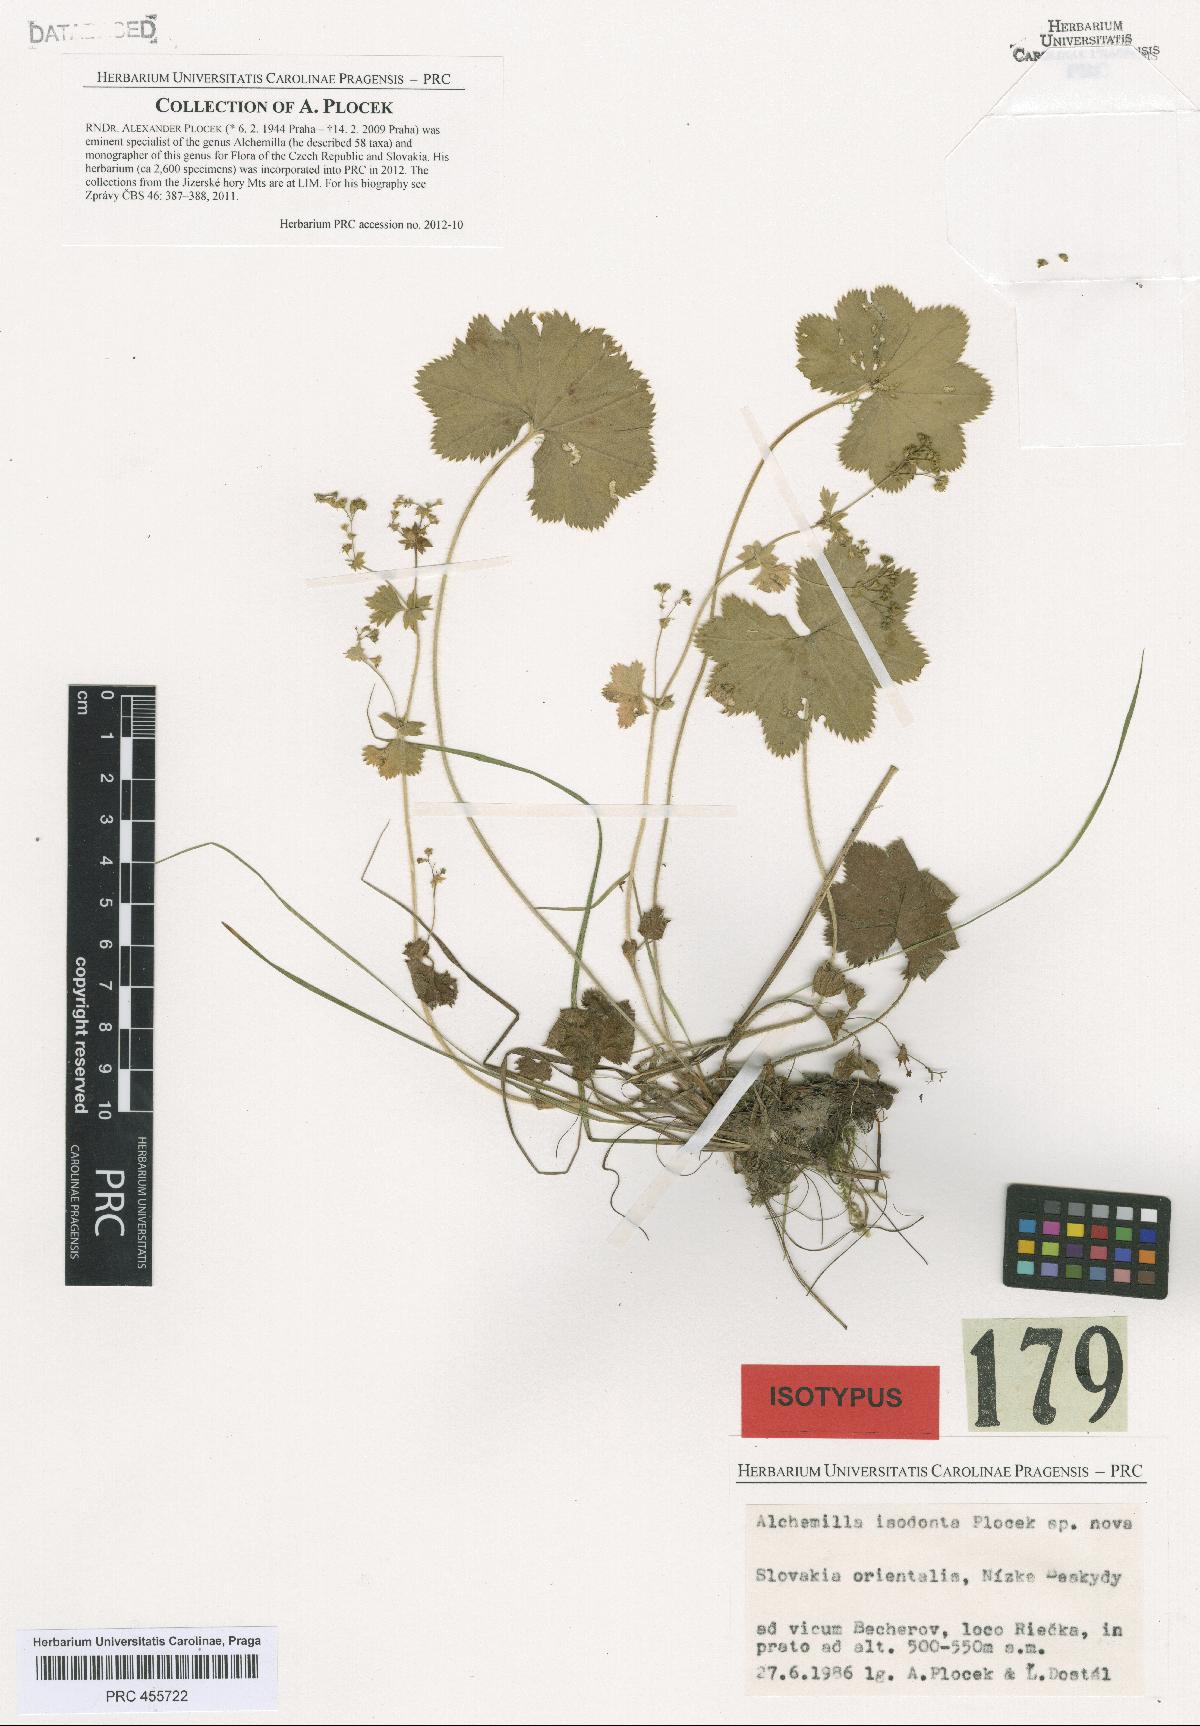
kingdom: Plantae
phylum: Tracheophyta
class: Magnoliopsida
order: Rosales
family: Rosaceae
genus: Alchemilla
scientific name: Alchemilla isodonta
